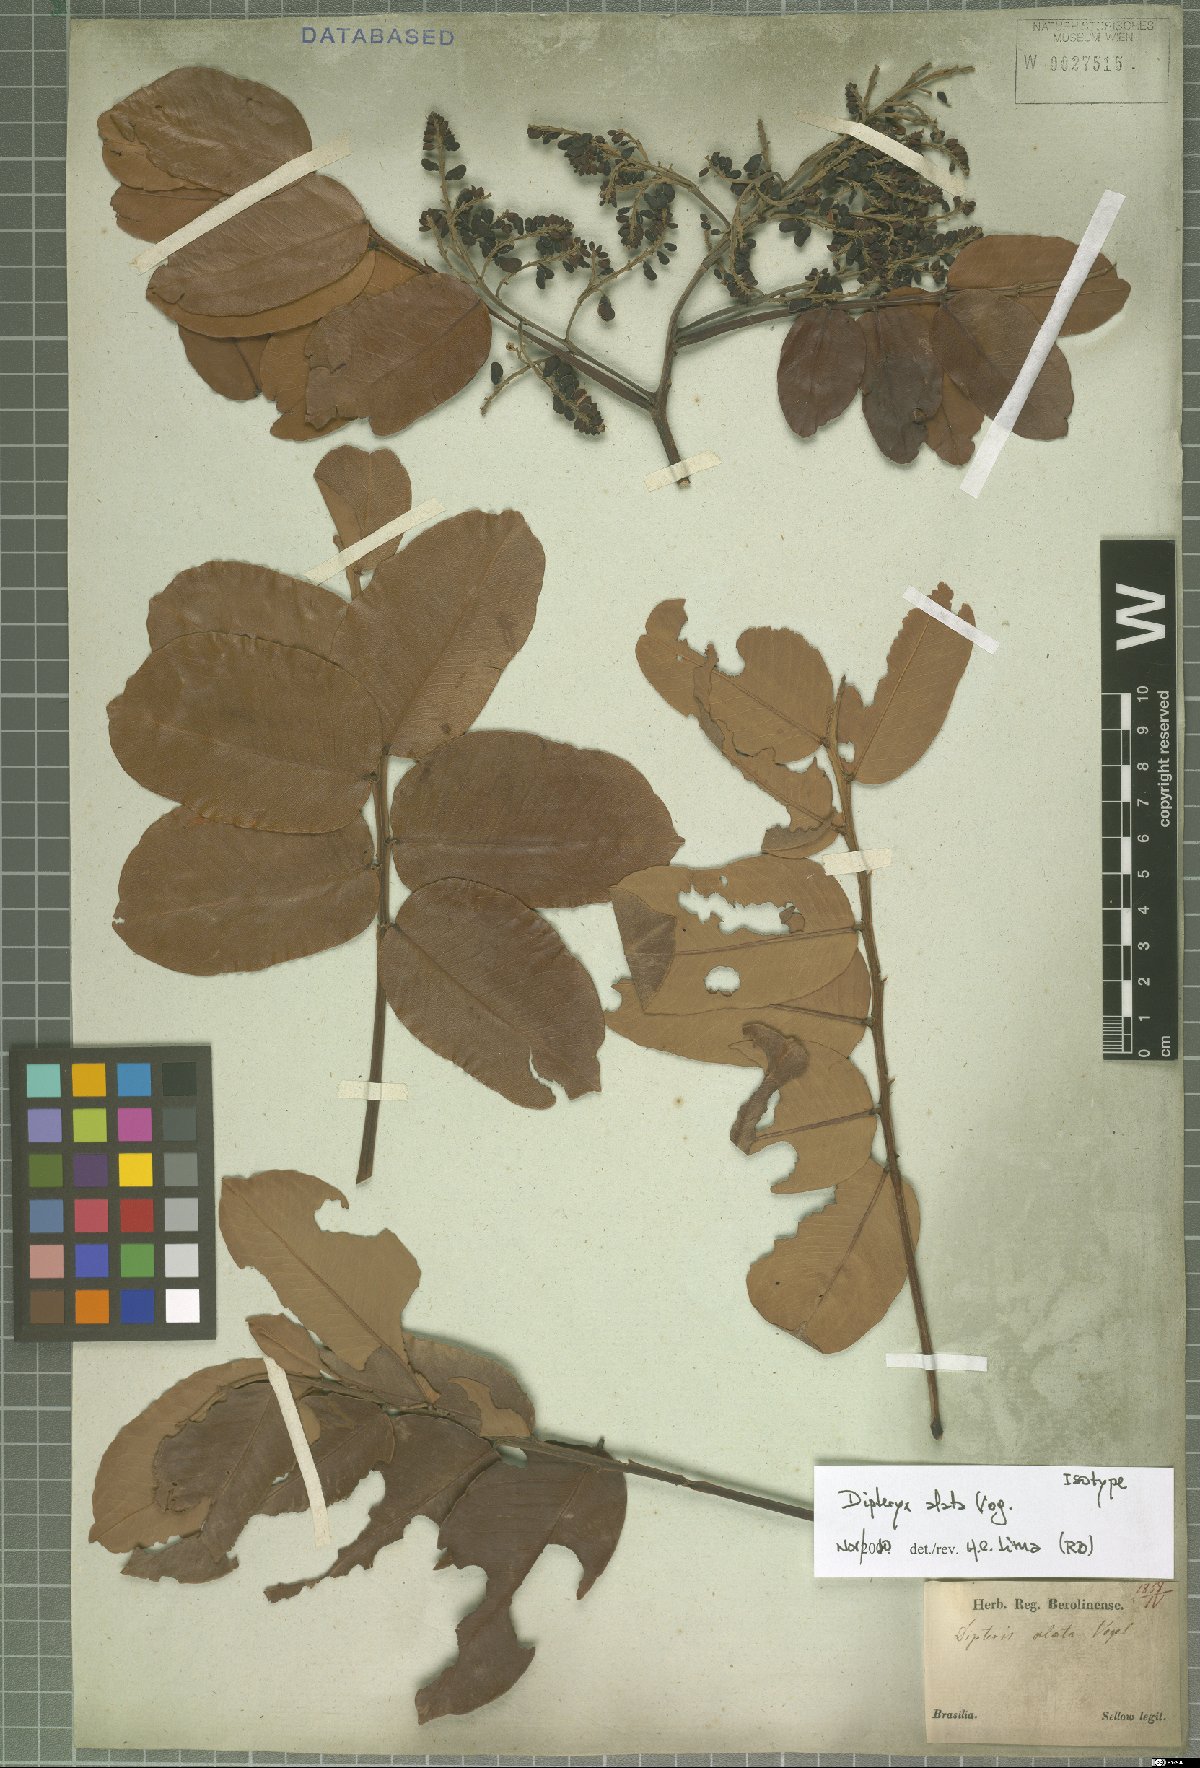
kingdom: Plantae
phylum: Tracheophyta
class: Magnoliopsida
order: Fabales
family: Fabaceae
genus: Dipteryx
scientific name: Dipteryx alata
